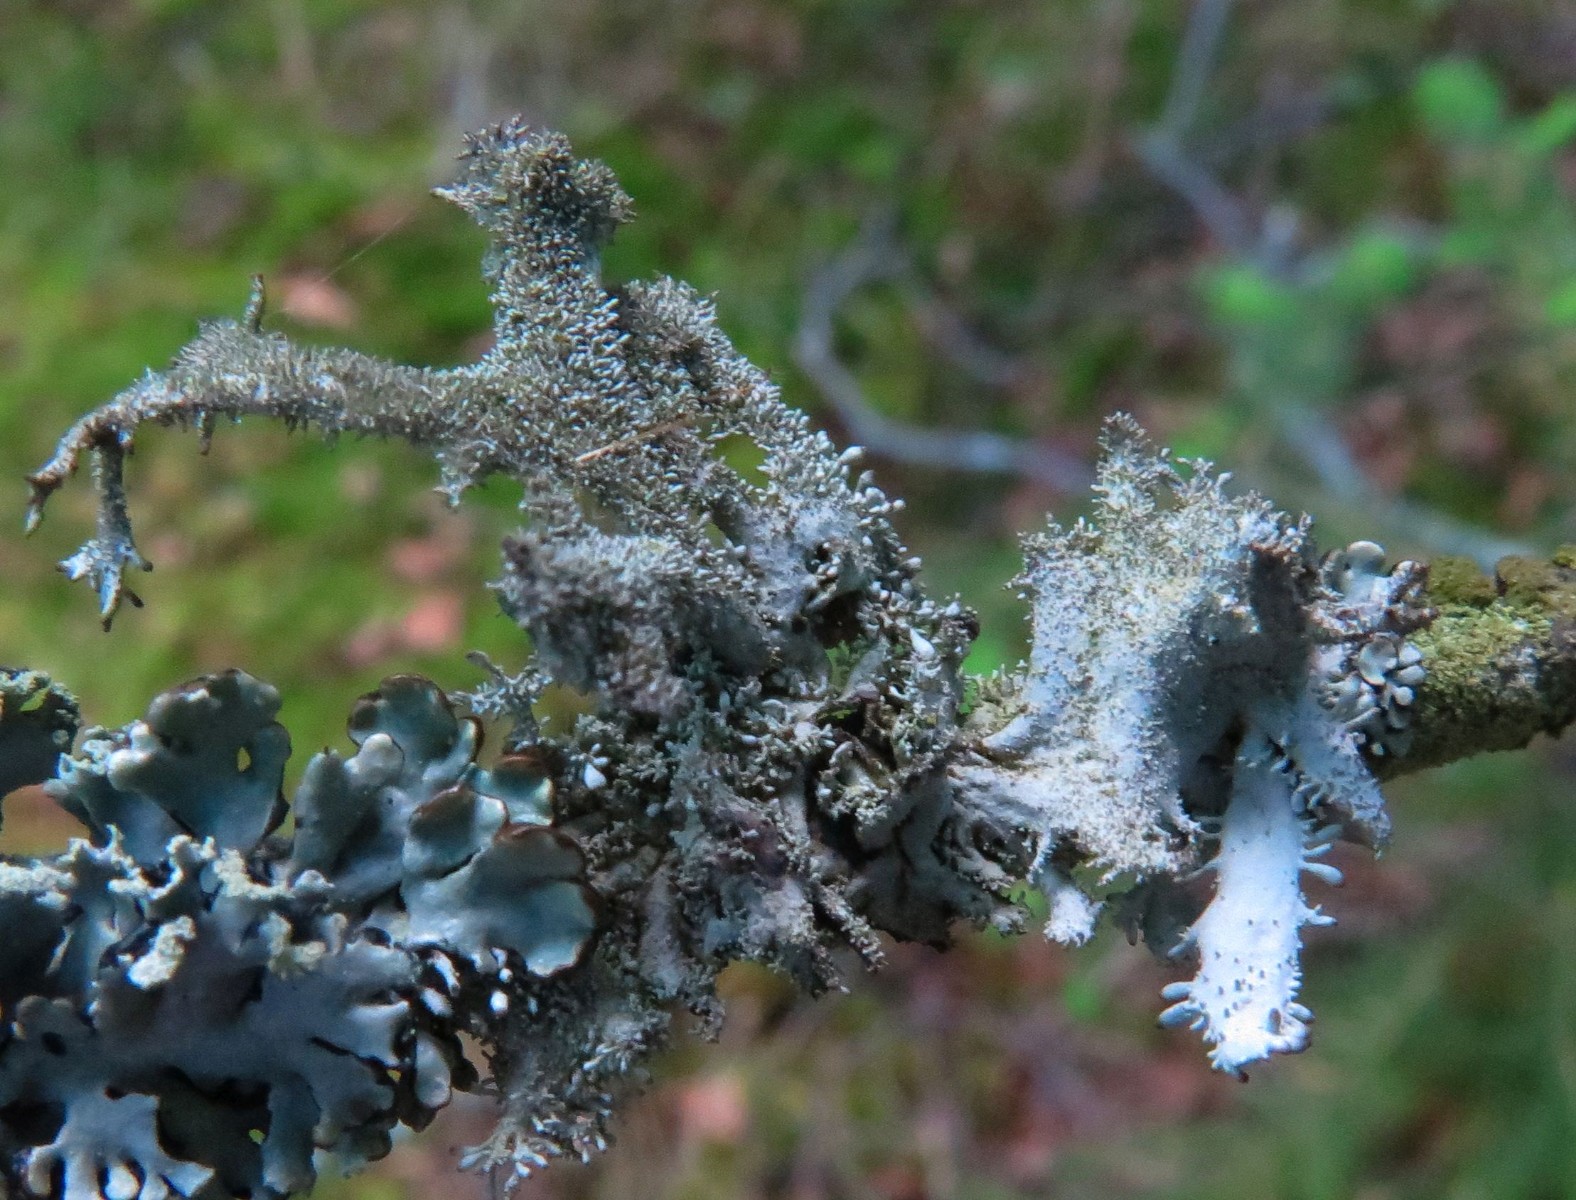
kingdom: Fungi
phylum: Ascomycota
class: Lecanoromycetes
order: Lecanorales
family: Parmeliaceae
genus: Pseudevernia
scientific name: Pseudevernia furfuracea
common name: grå fyrrelav
